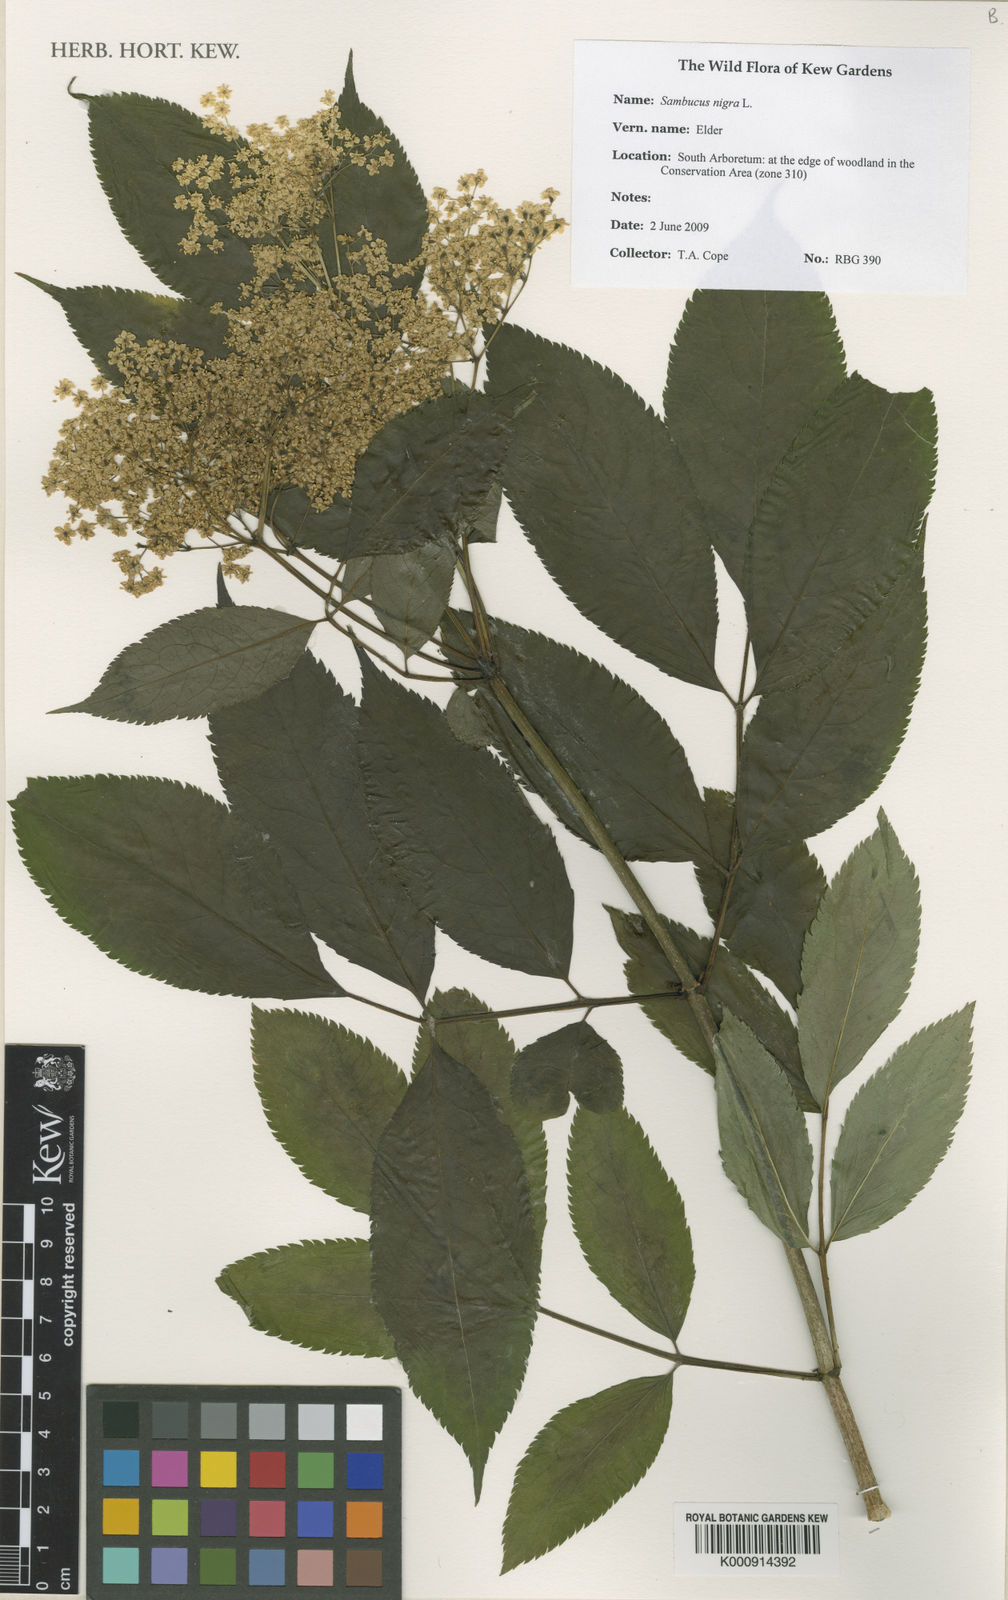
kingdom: Plantae
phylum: Tracheophyta
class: Magnoliopsida
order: Dipsacales
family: Viburnaceae
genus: Sambucus
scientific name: Sambucus nigra
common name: Elder
